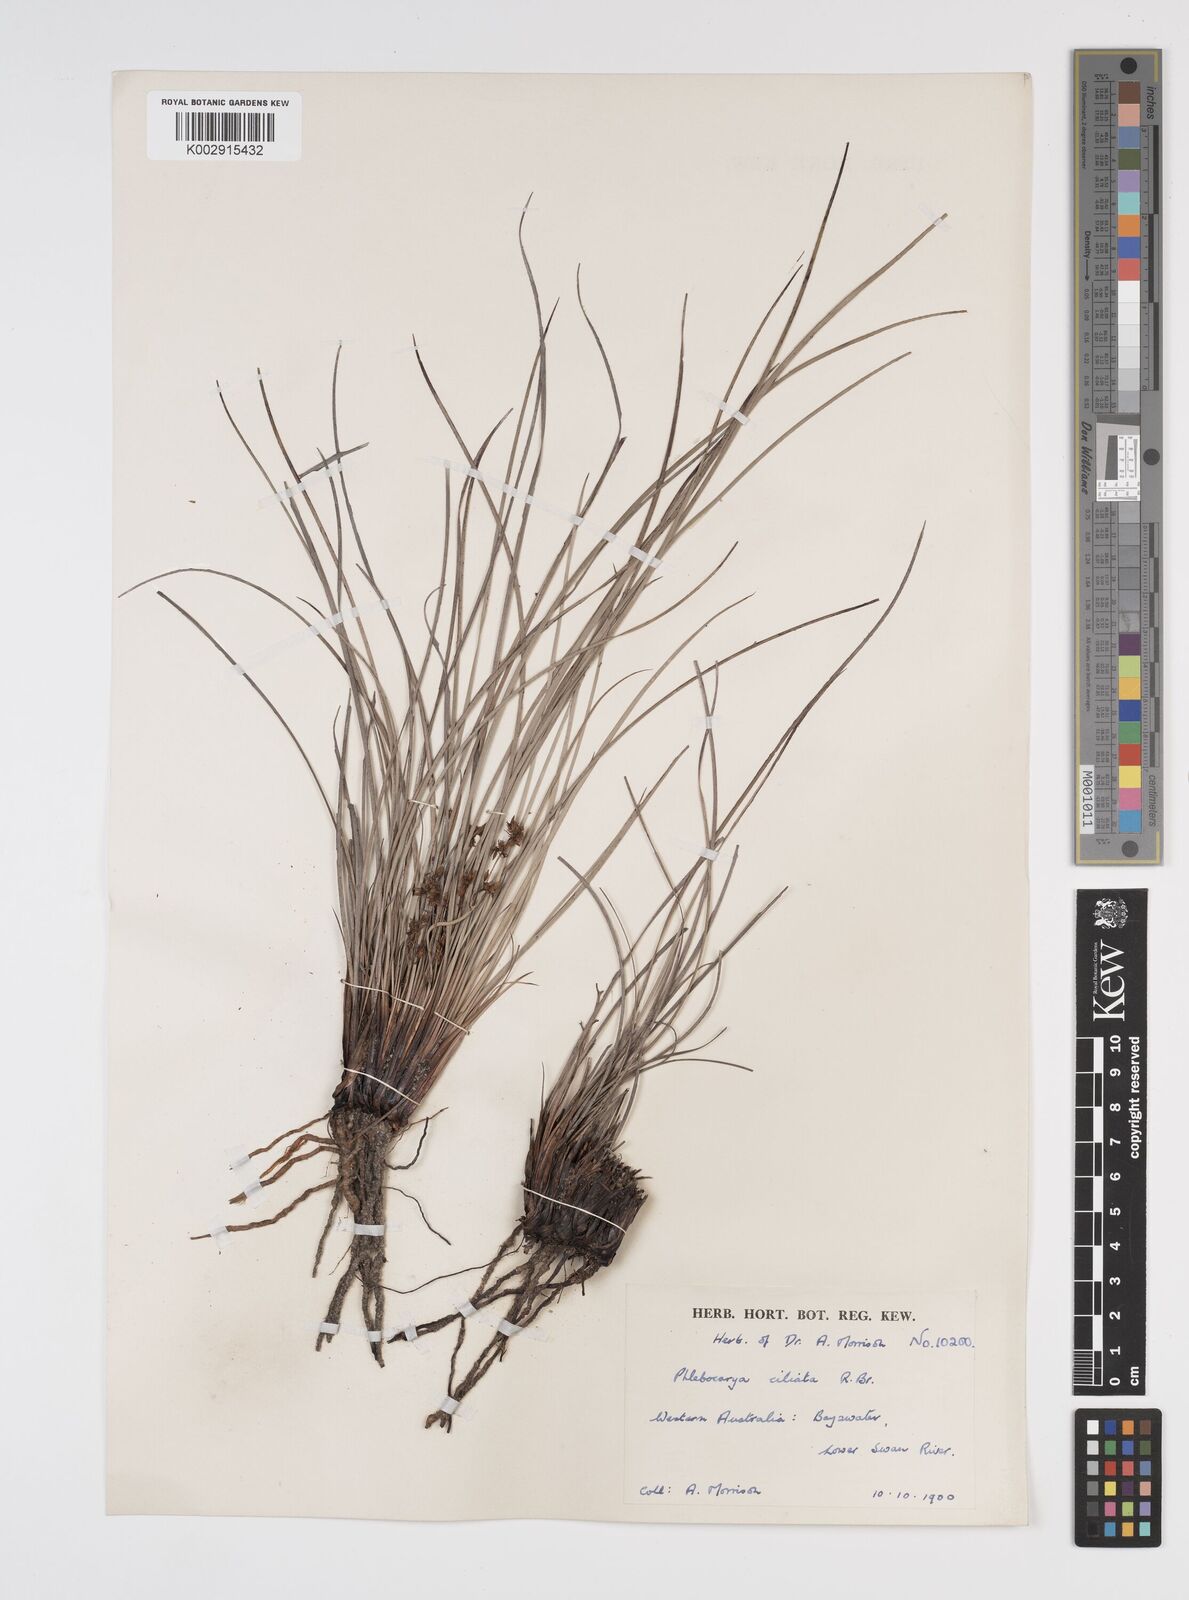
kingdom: Plantae
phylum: Tracheophyta
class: Liliopsida
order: Commelinales
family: Haemodoraceae
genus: Phlebocarya
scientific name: Phlebocarya ciliata
